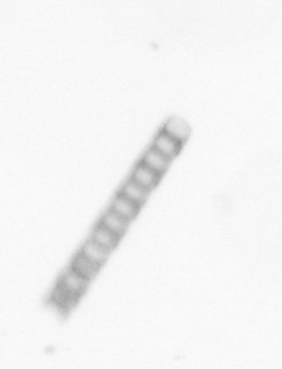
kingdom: Chromista
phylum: Ochrophyta
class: Bacillariophyceae
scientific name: Bacillariophyceae
